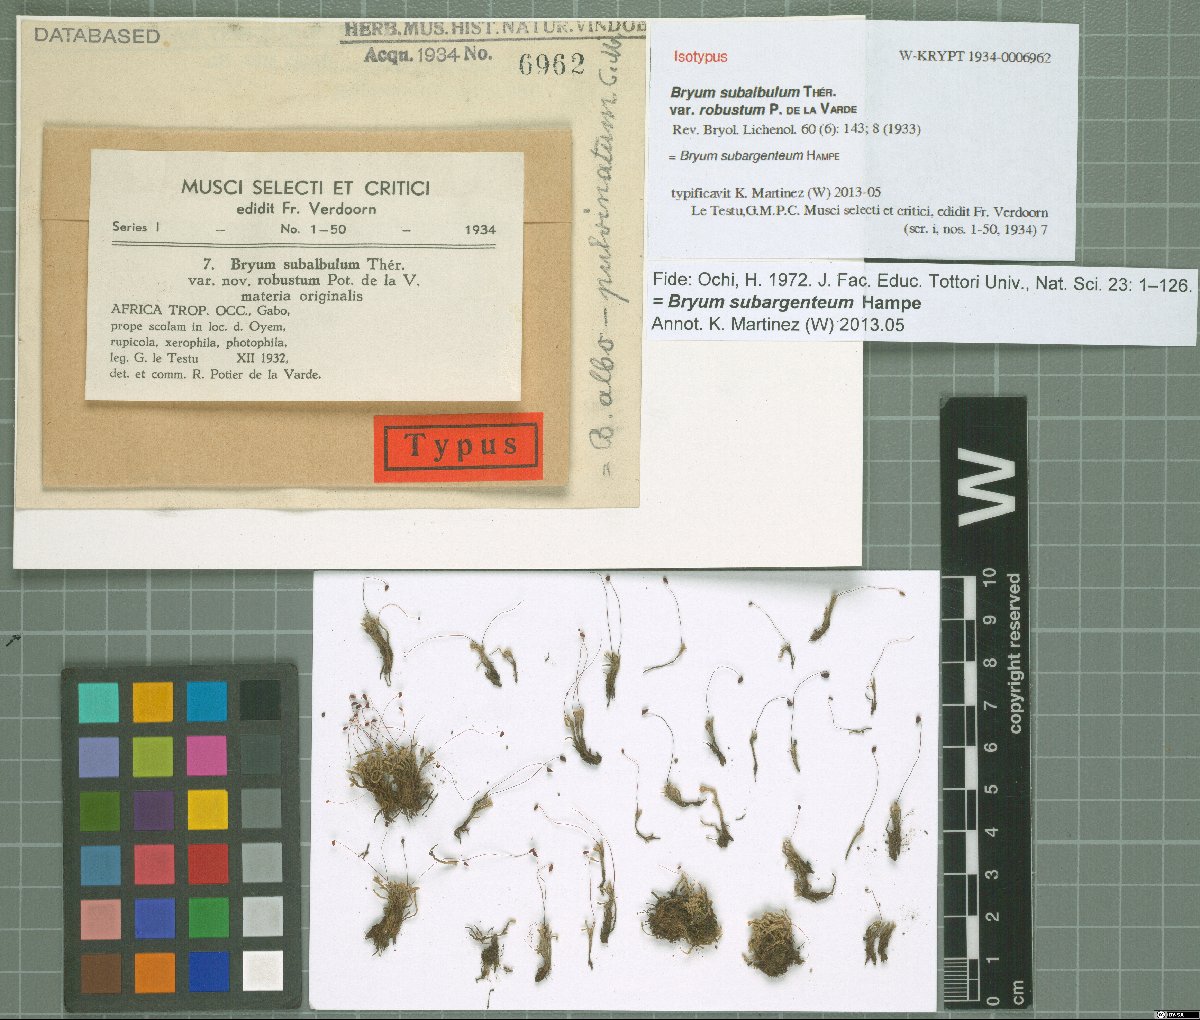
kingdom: Plantae
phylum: Bryophyta
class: Bryopsida
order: Bryales
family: Bryaceae
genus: Bryum
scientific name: Bryum subargenteum
